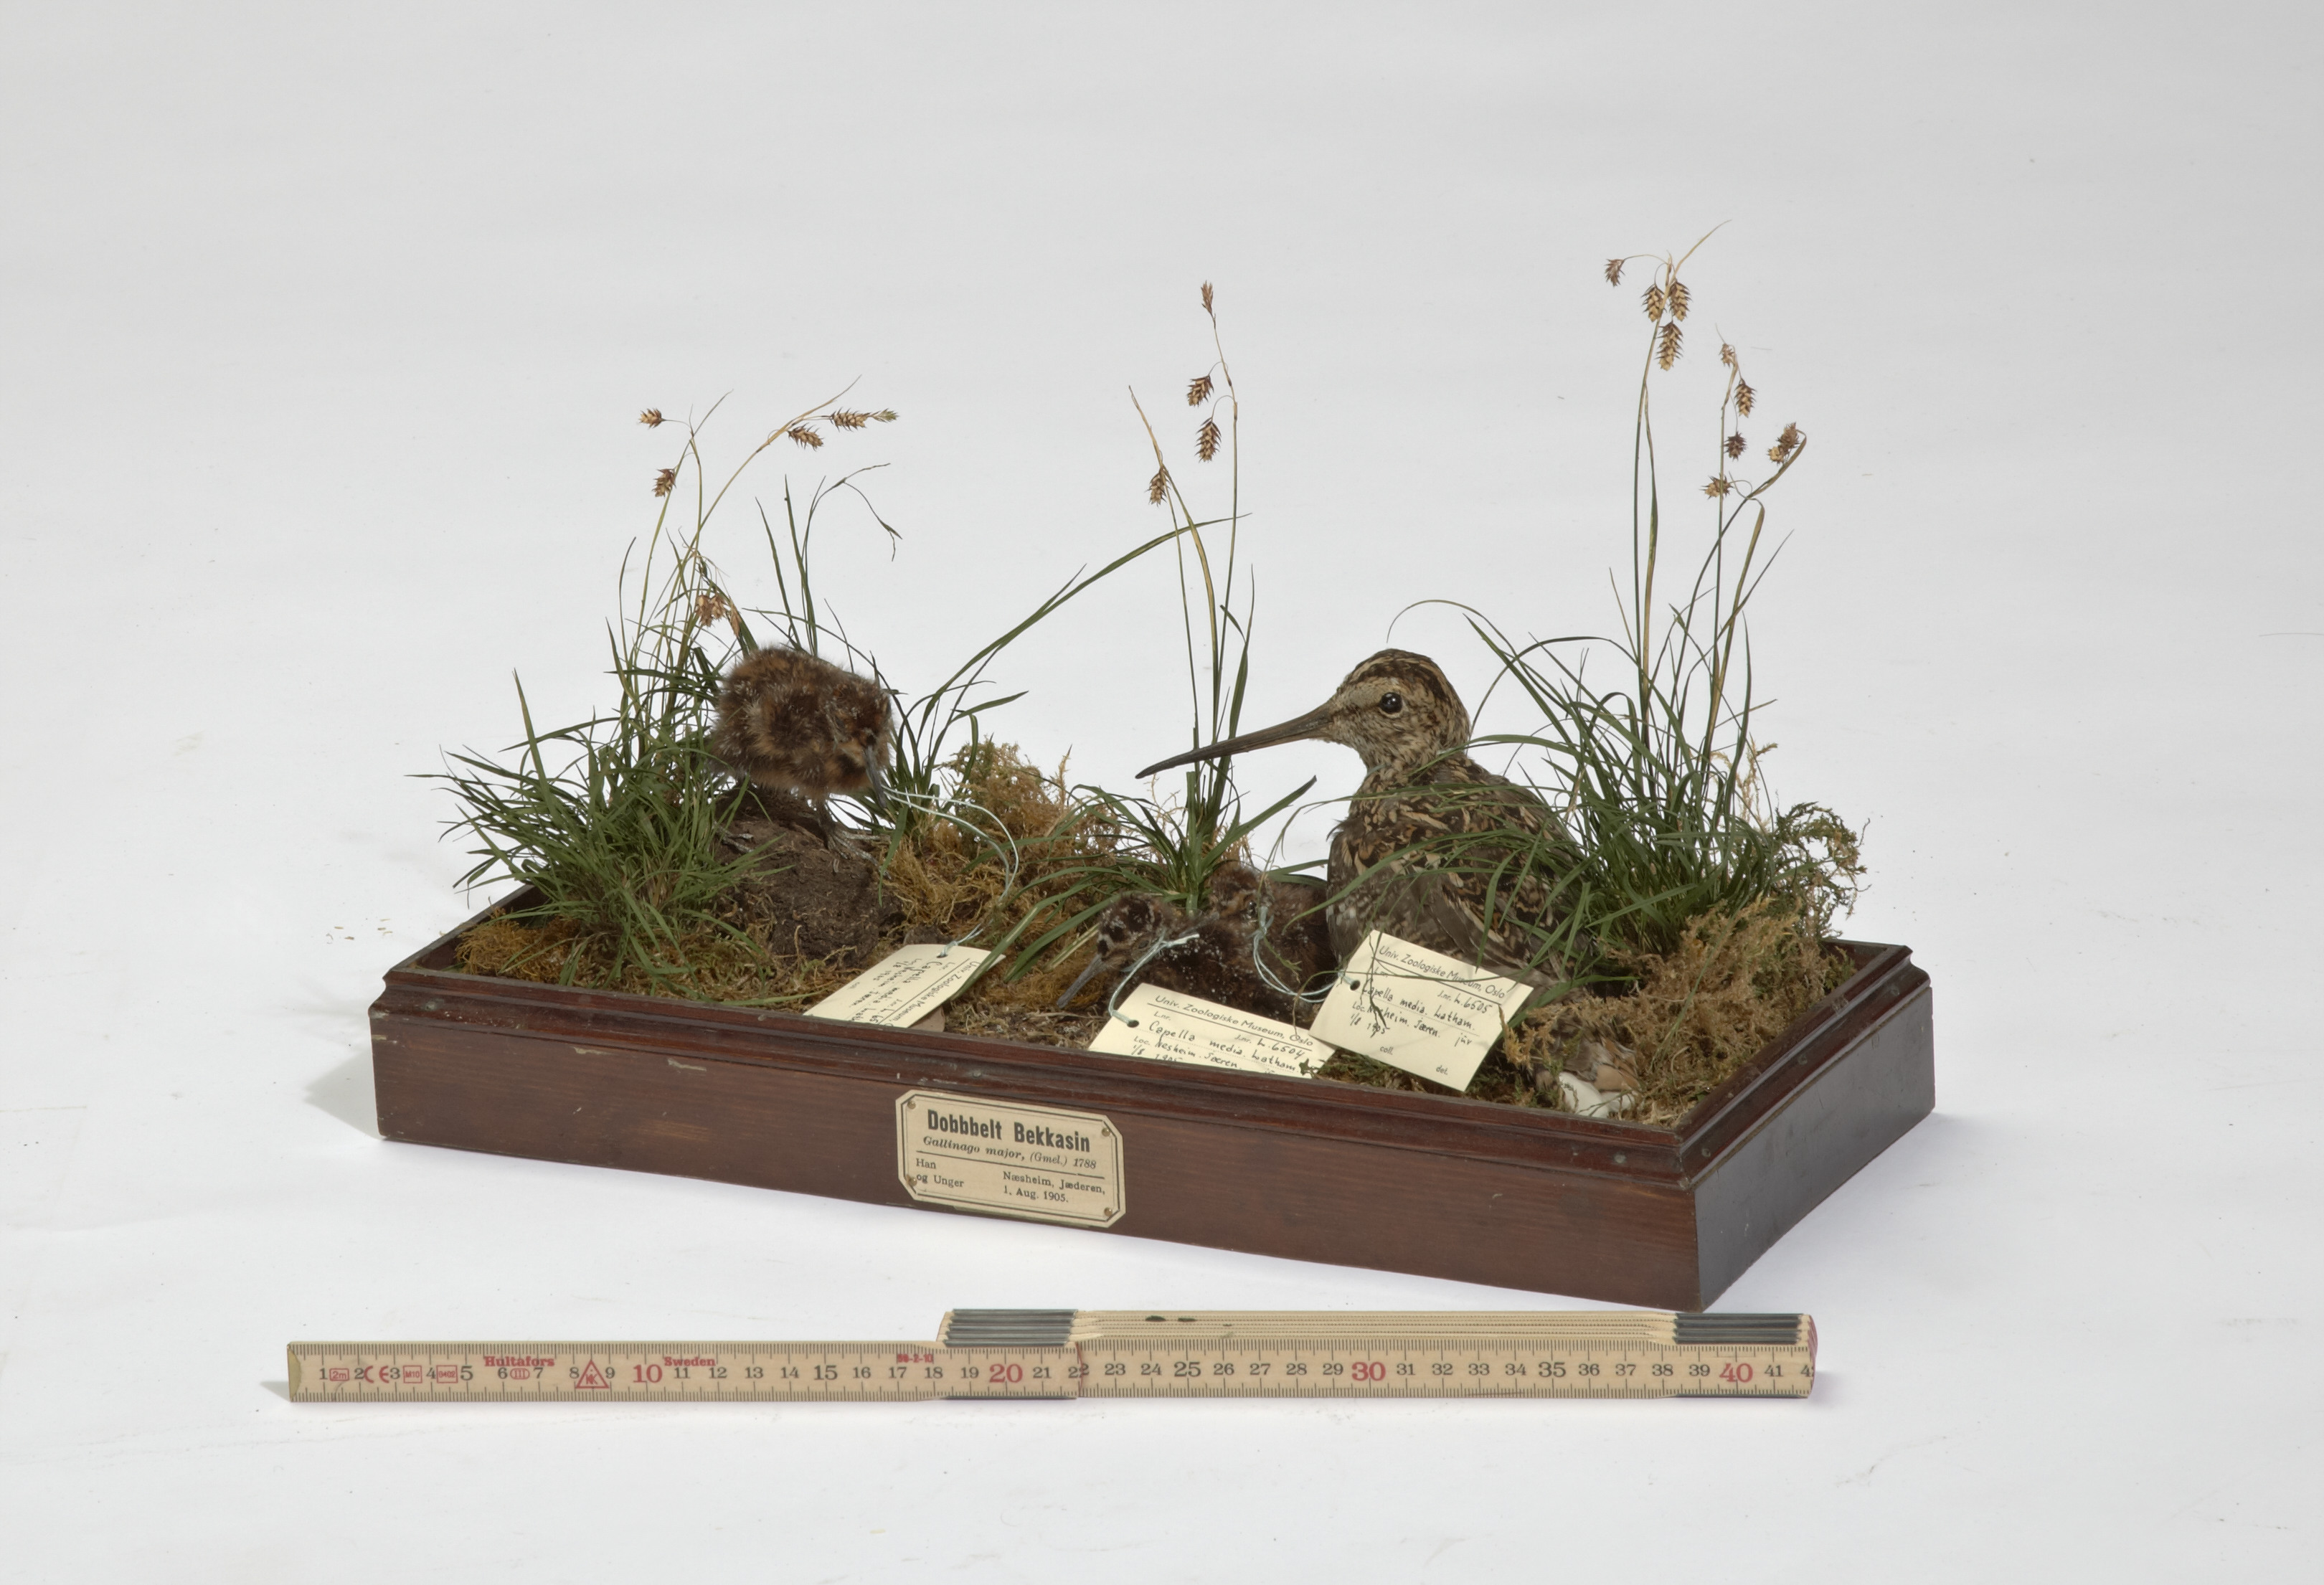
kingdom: Animalia
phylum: Chordata
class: Aves
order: Charadriiformes
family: Scolopacidae
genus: Gallinago
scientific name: Gallinago media
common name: Great snipe
